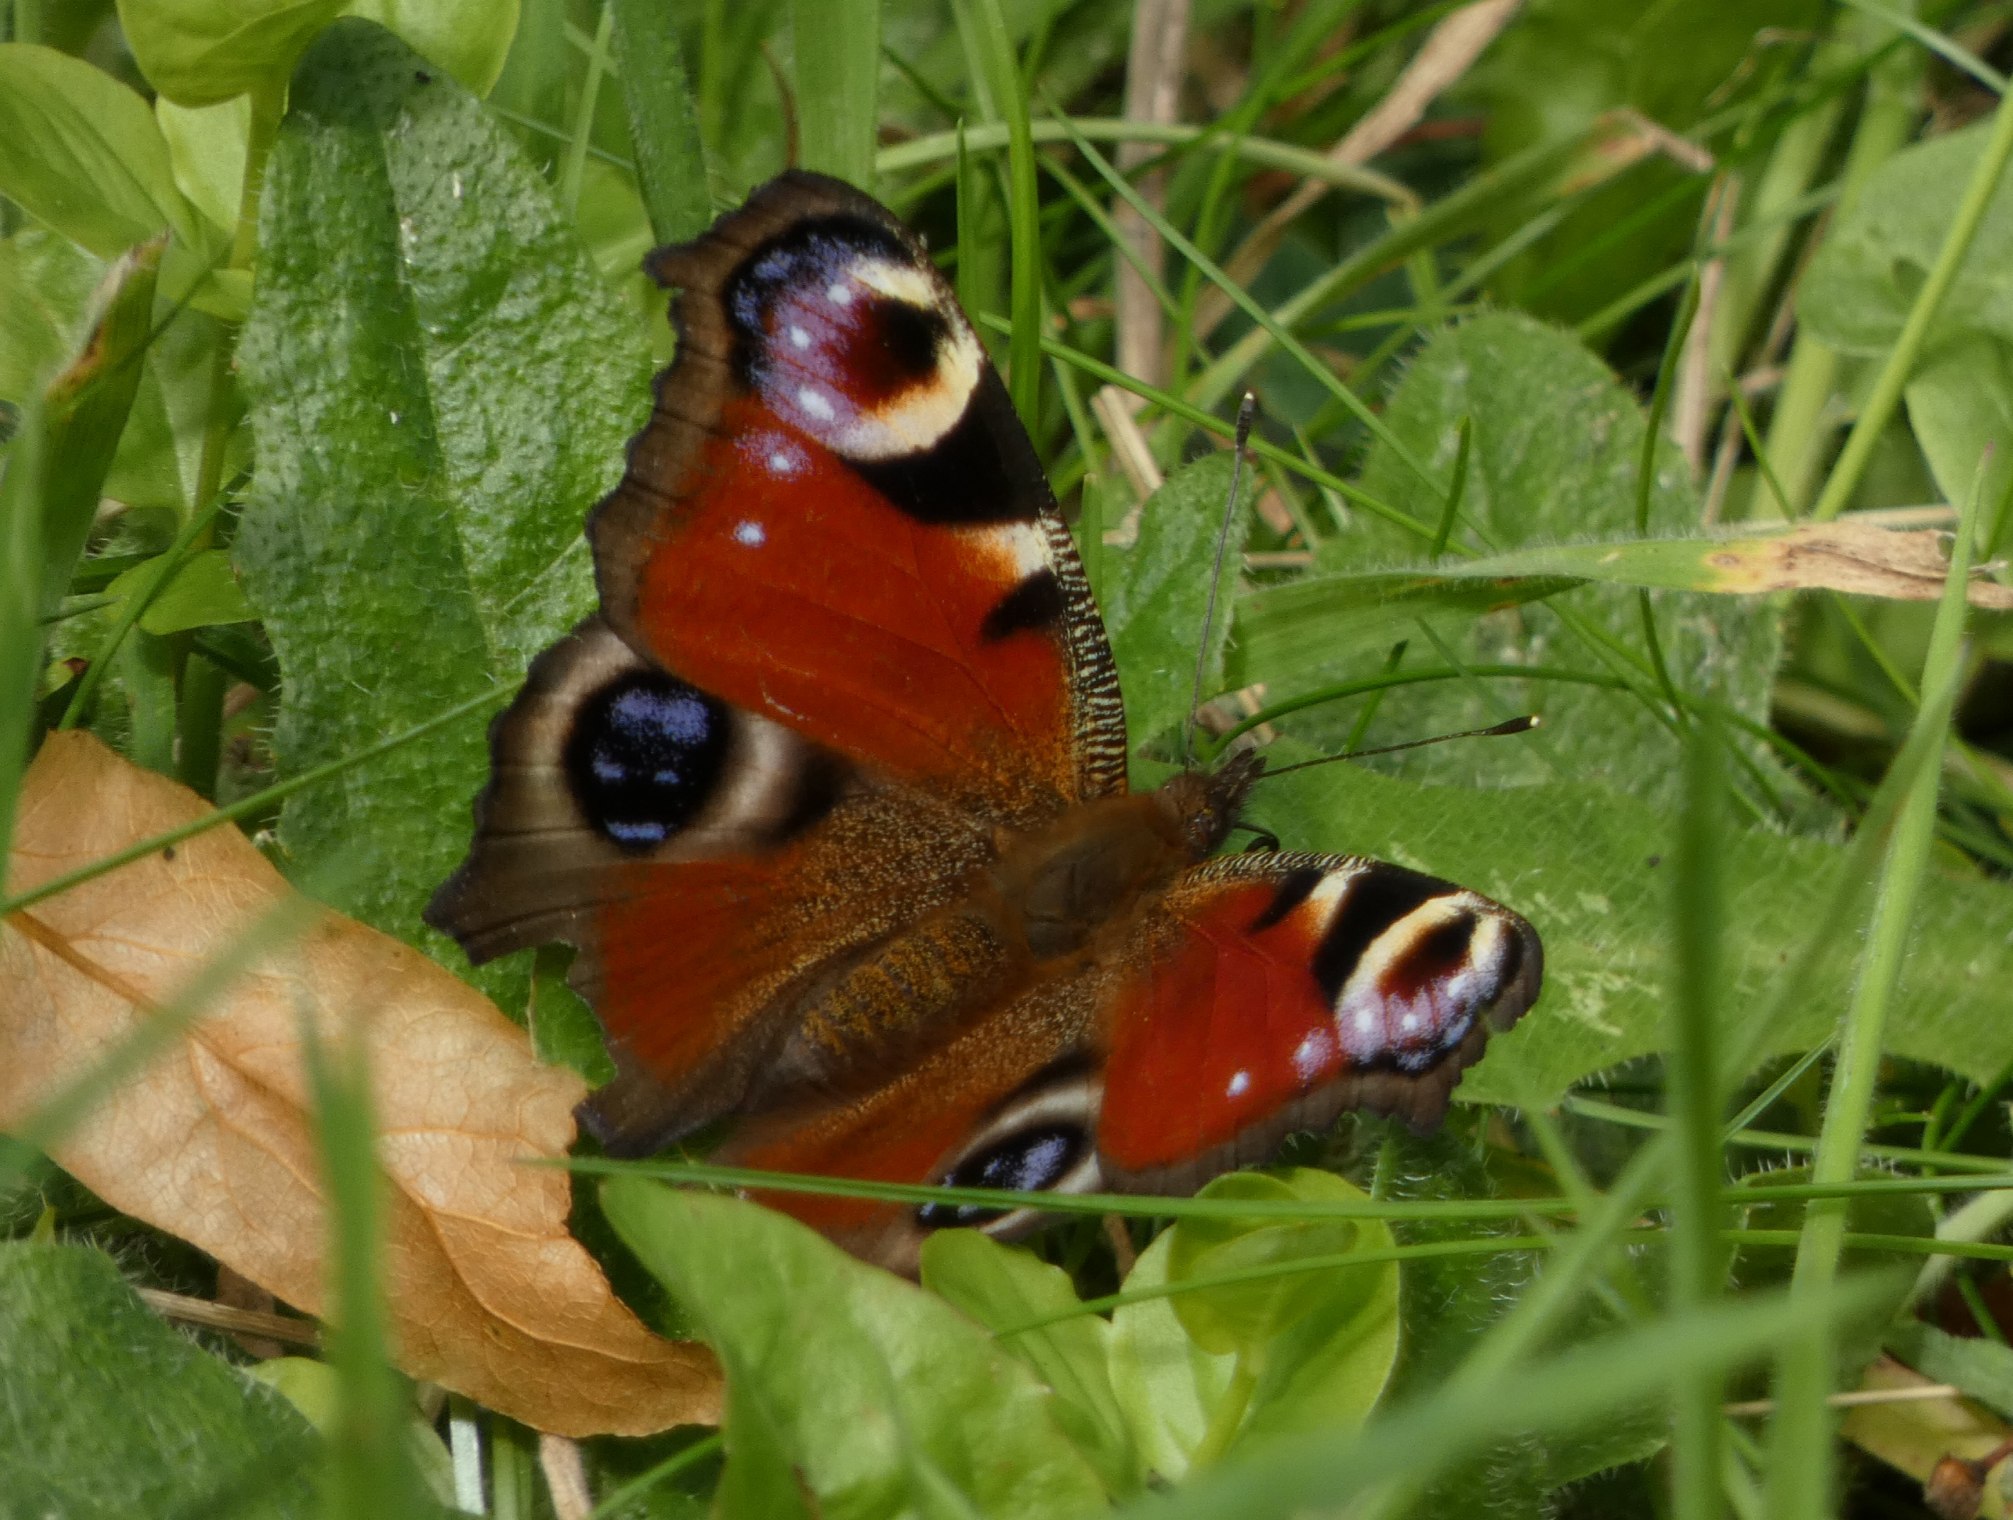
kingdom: Animalia
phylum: Arthropoda
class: Insecta
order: Lepidoptera
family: Nymphalidae
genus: Aglais
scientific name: Aglais io
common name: Dagpåfugleøje
